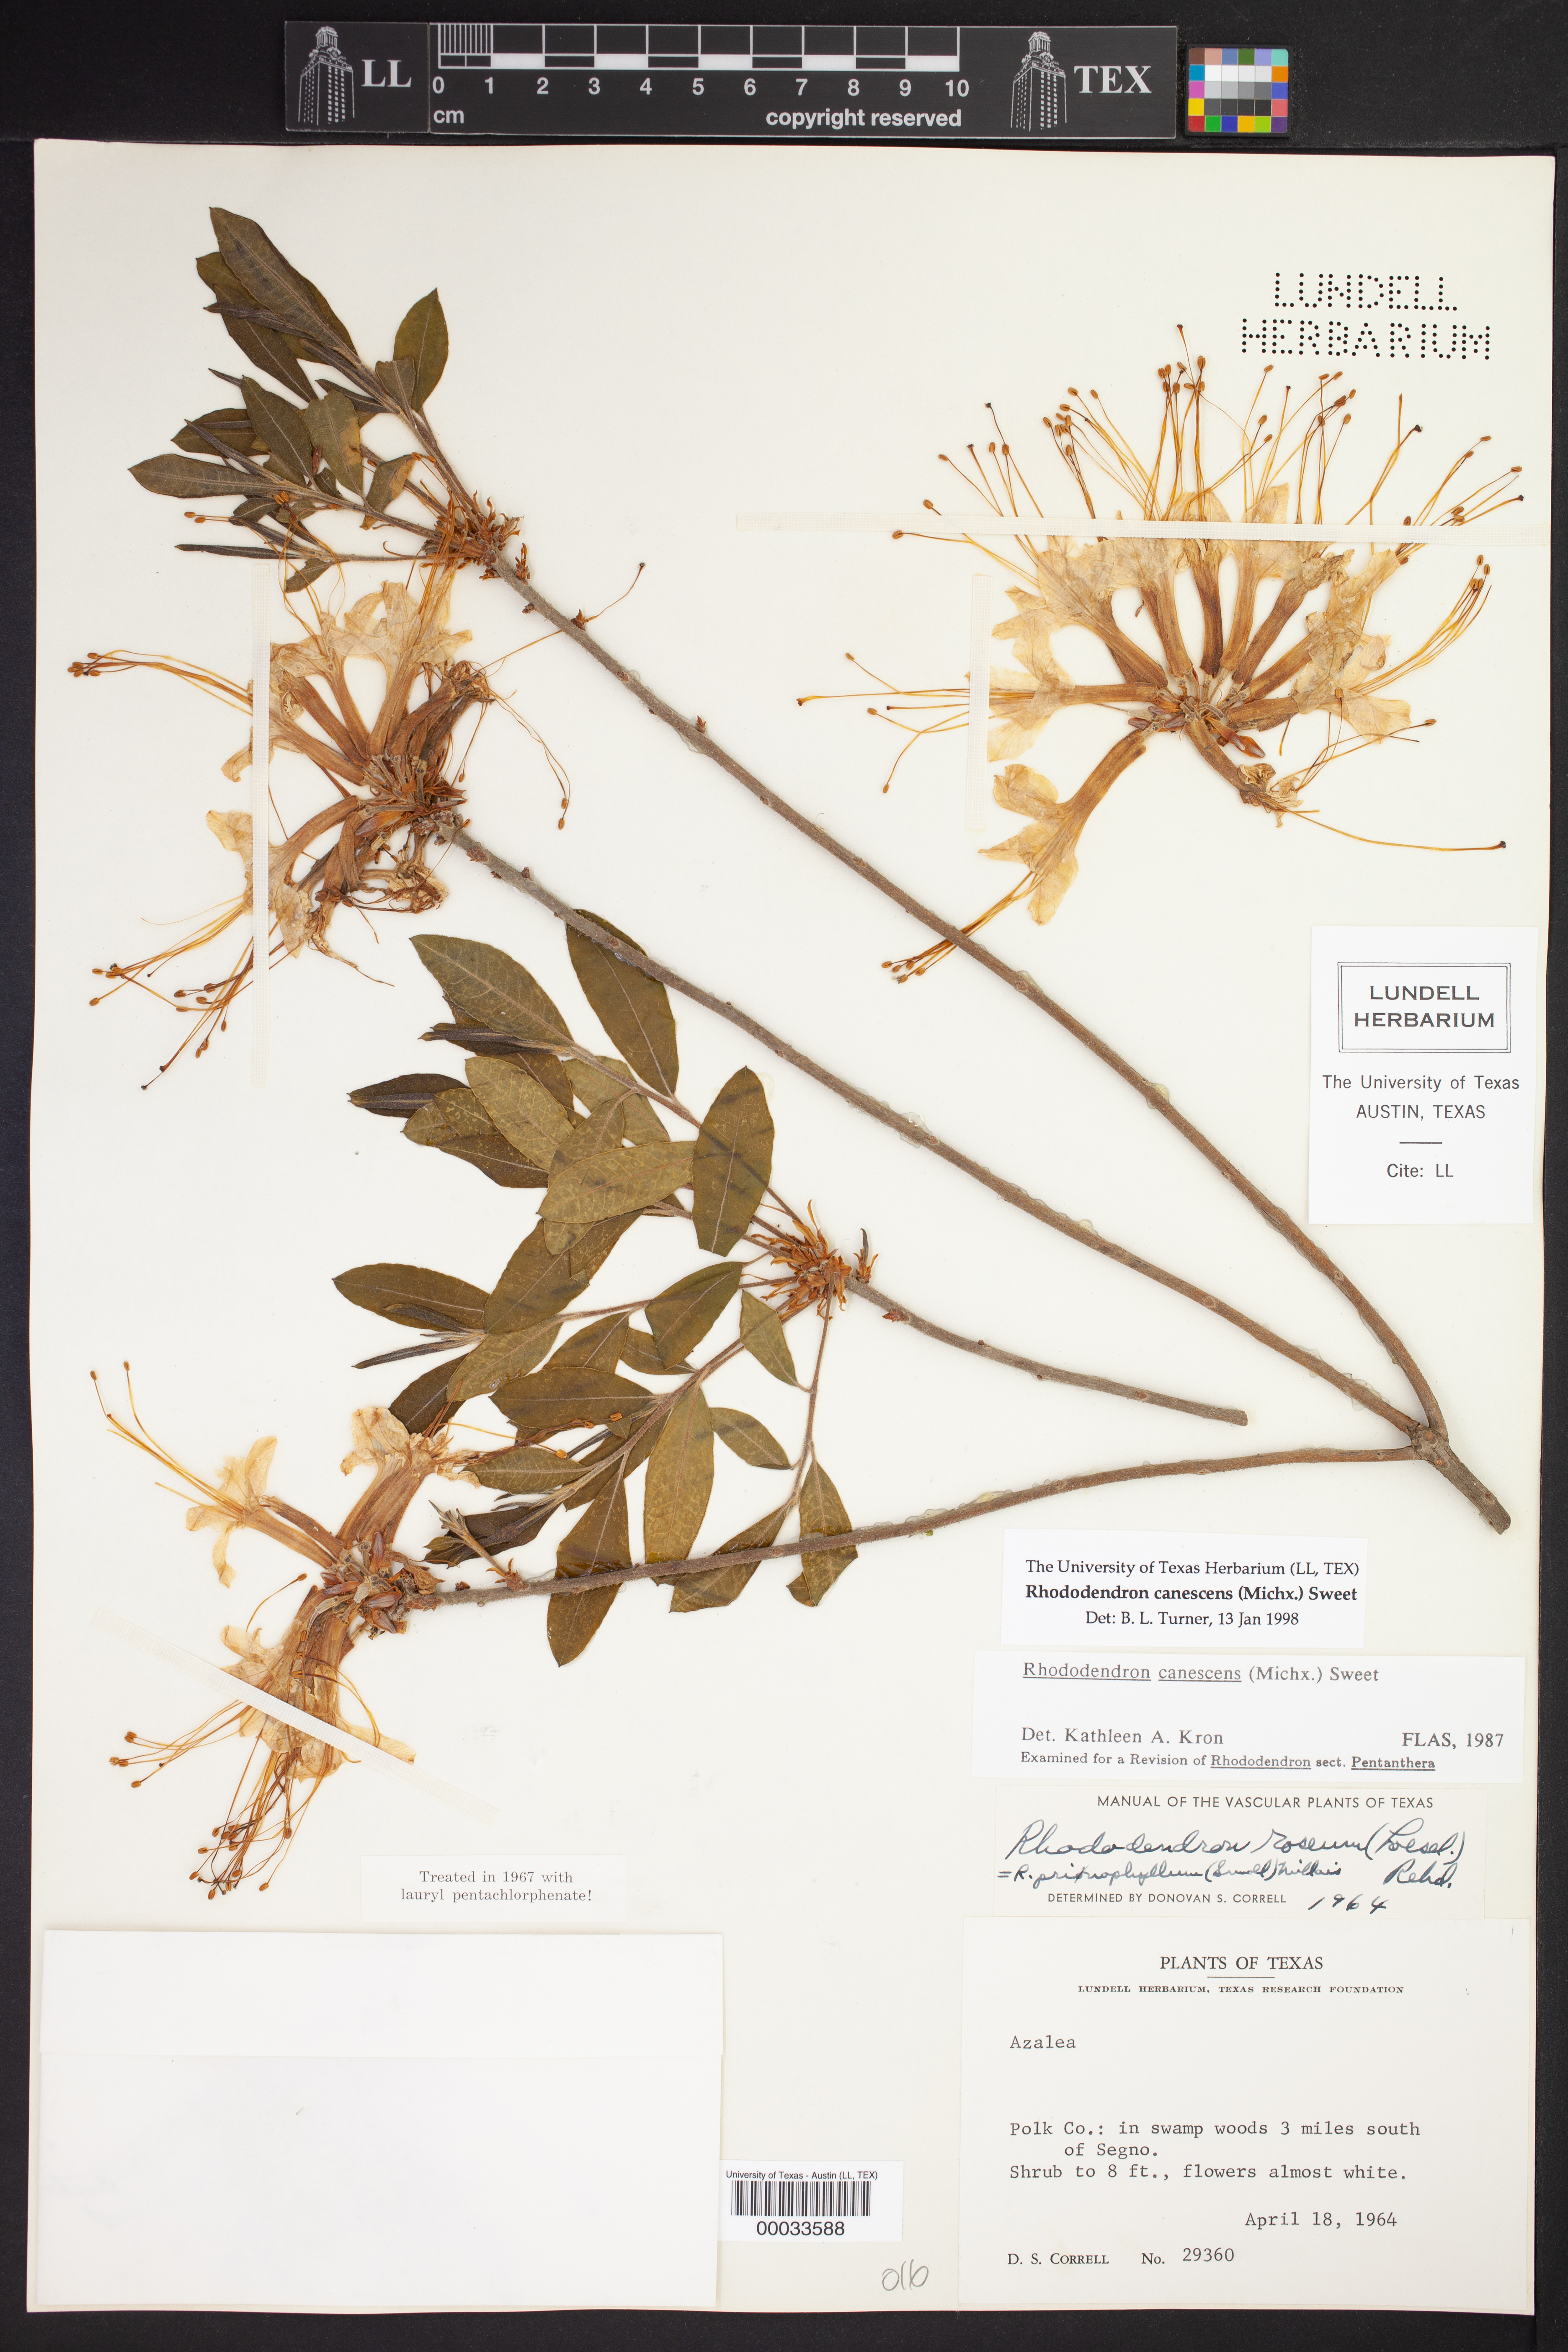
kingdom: Plantae
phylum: Tracheophyta
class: Magnoliopsida
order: Ericales
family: Ericaceae
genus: Rhododendron
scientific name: Rhododendron canescens
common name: Mountain azalea
